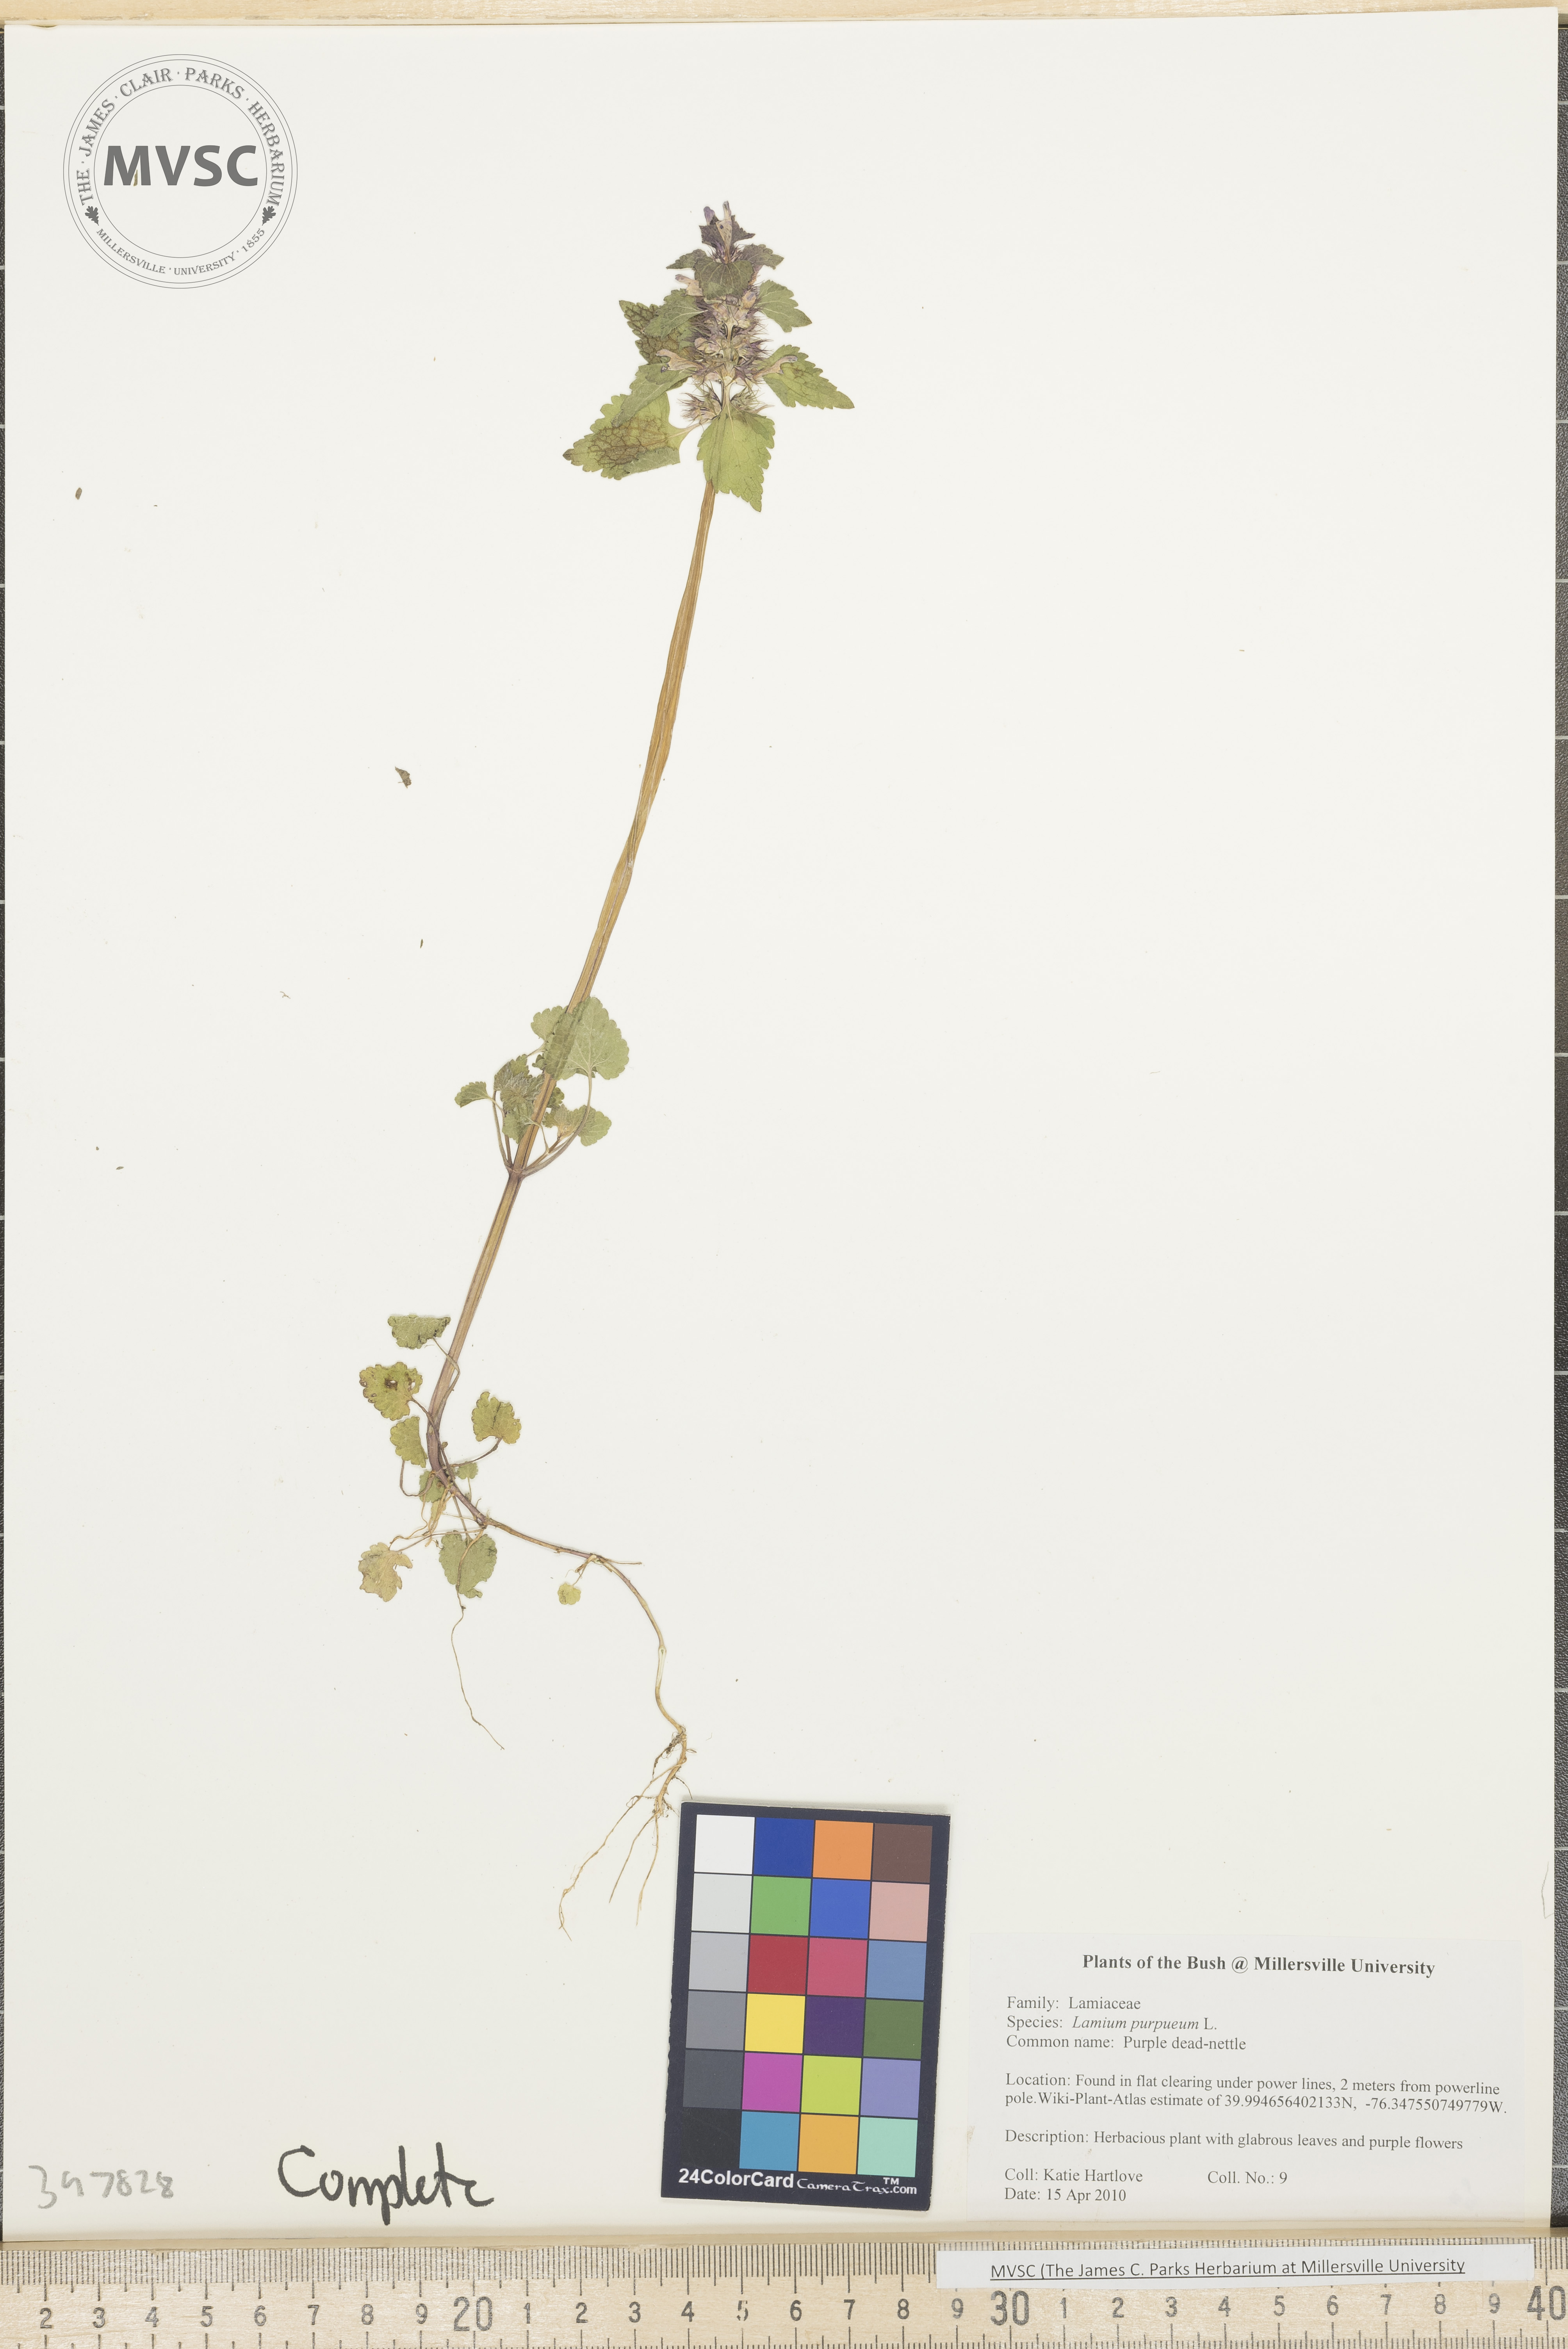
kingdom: Plantae
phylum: Tracheophyta
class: Magnoliopsida
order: Lamiales
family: Lamiaceae
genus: Lamium
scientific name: Lamium purpureum
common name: Purple dead-nettle
